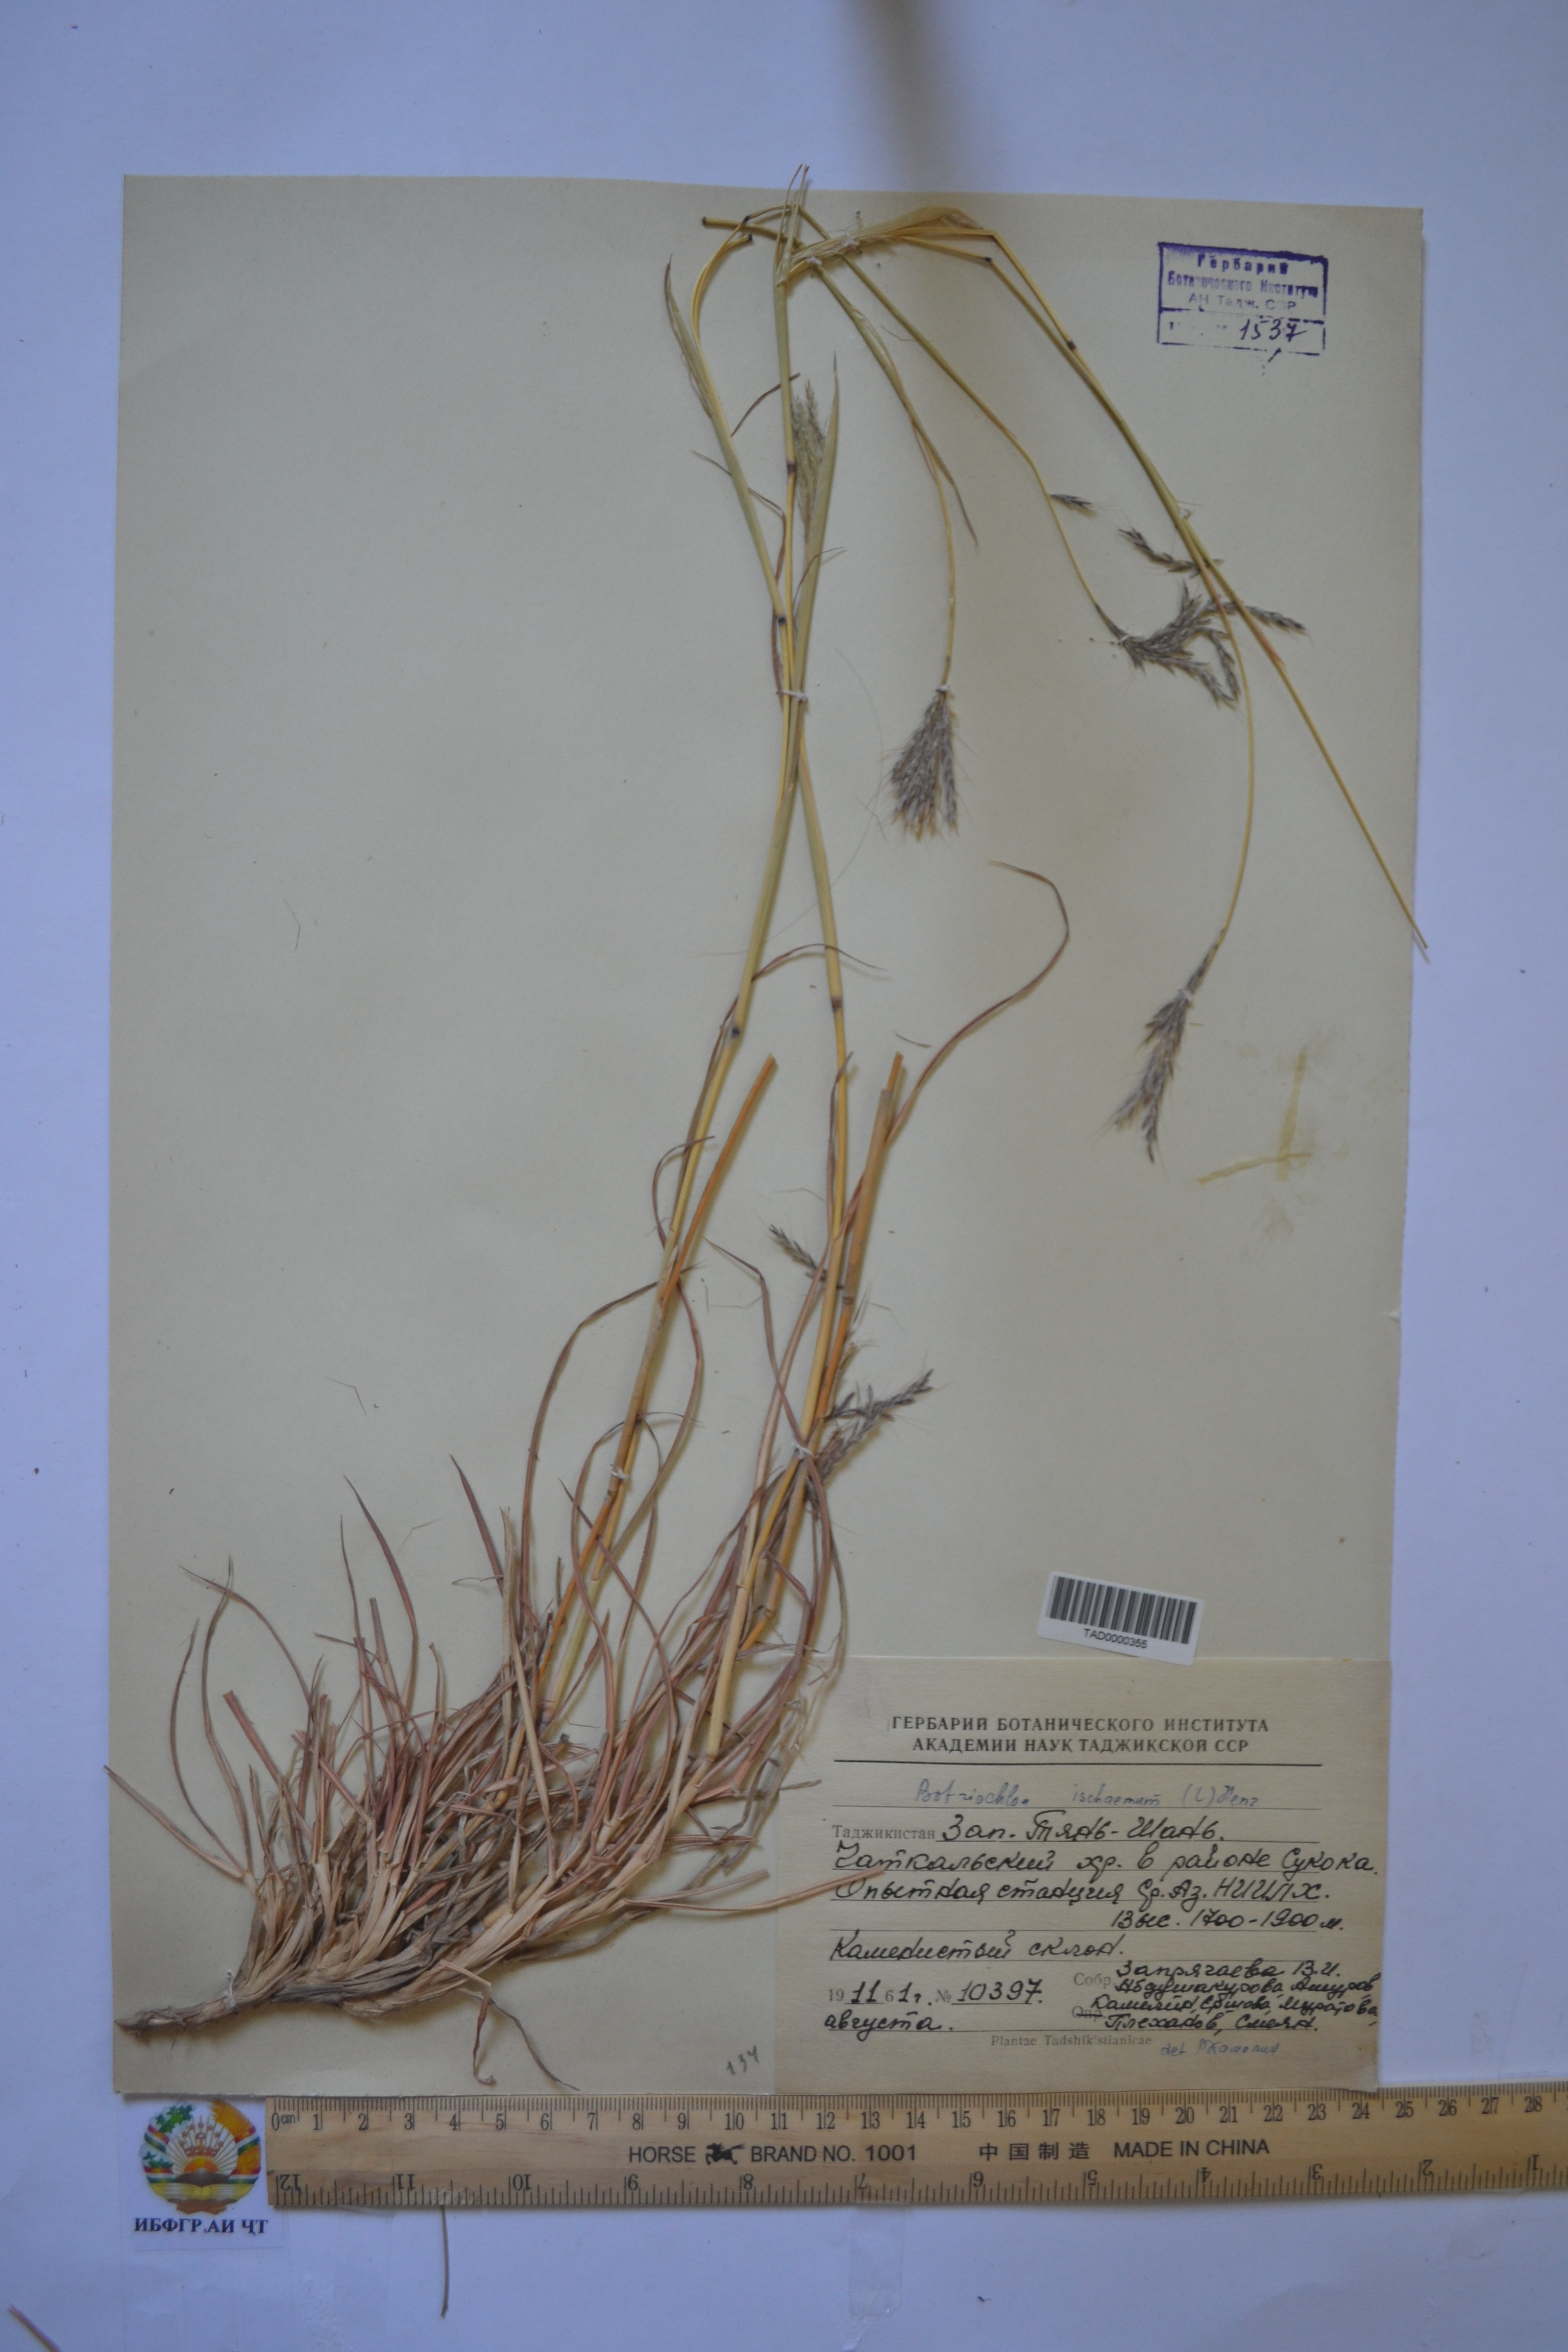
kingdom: Plantae
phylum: Tracheophyta
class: Liliopsida
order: Poales
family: Poaceae
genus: Andropogon
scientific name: Andropogon ischaemum
